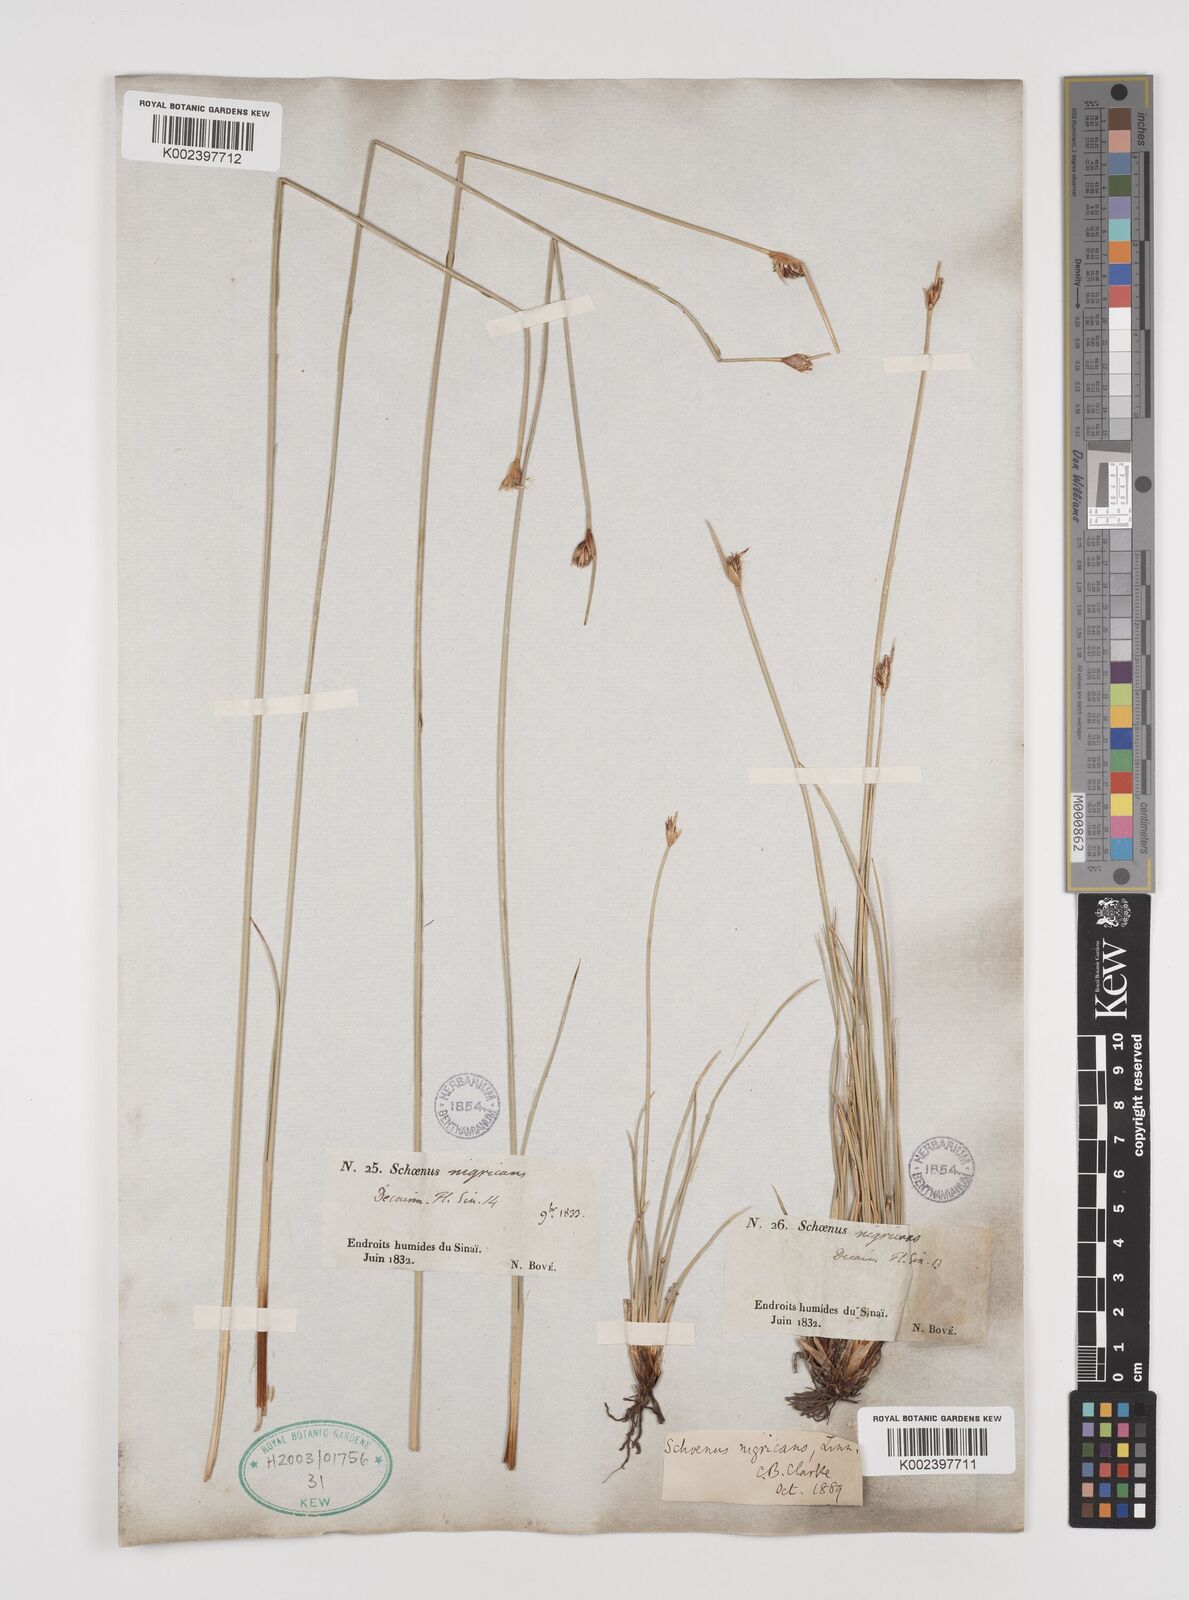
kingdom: Plantae
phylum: Tracheophyta
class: Liliopsida
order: Poales
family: Cyperaceae
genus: Schoenus
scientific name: Schoenus nigricans
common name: Black bog-rush
